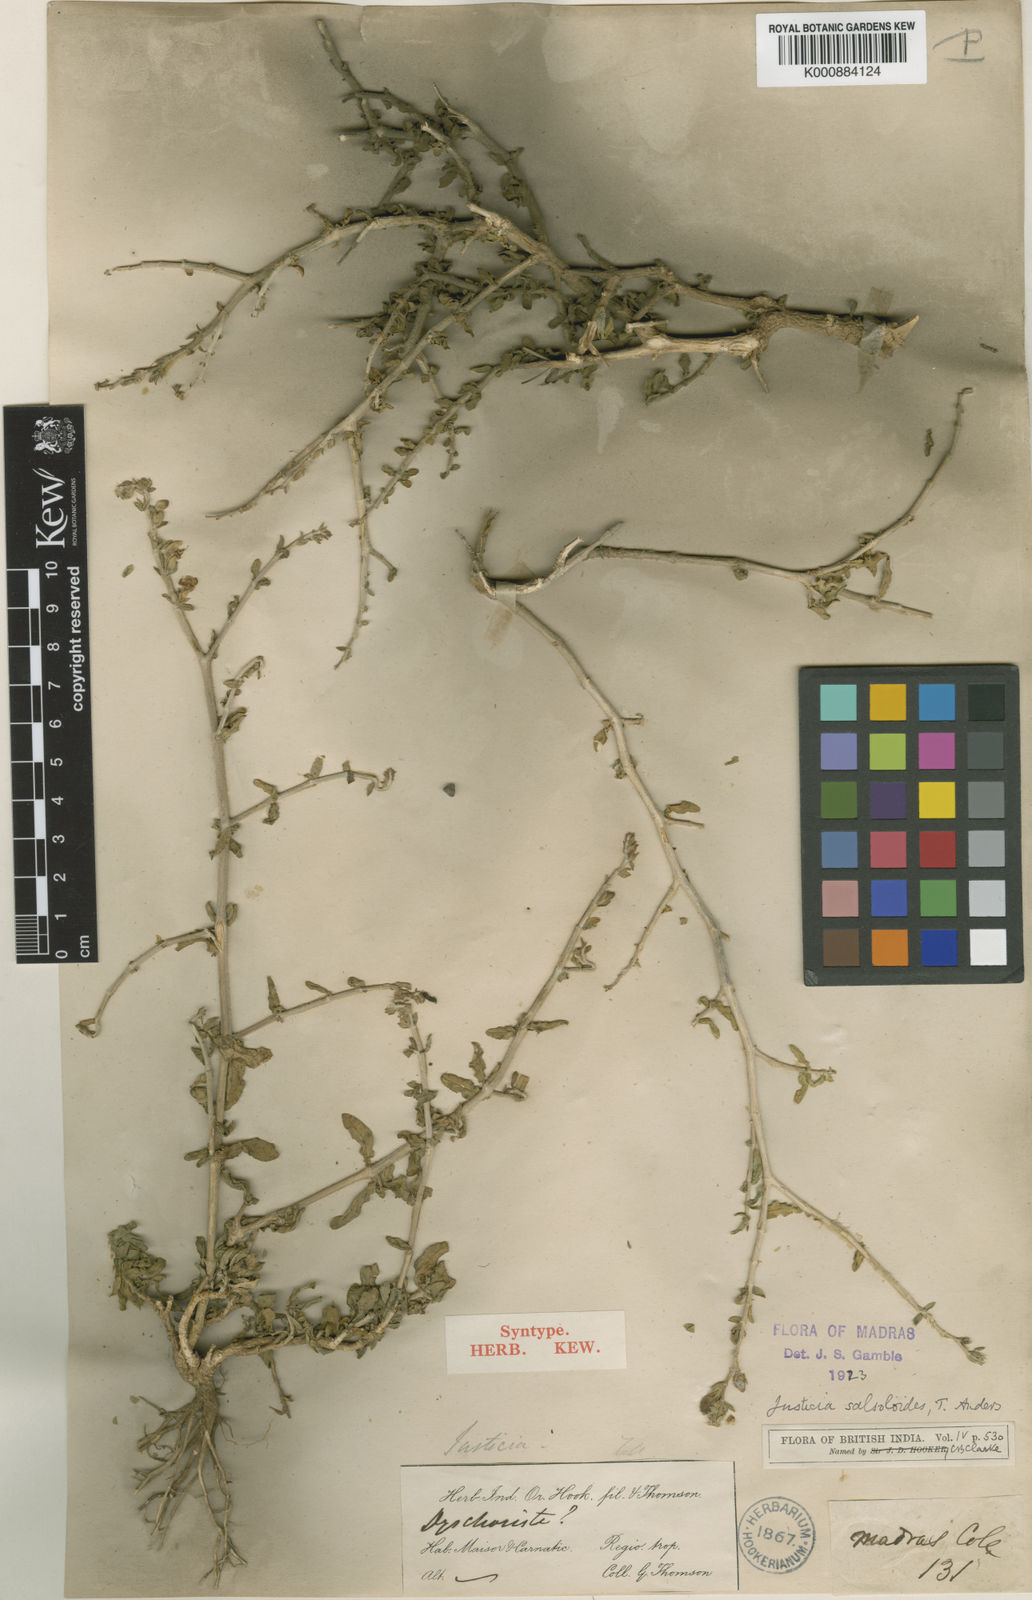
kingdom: Plantae
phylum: Tracheophyta
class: Magnoliopsida
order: Lamiales
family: Acanthaceae
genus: Justicia
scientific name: Justicia salsoloides
